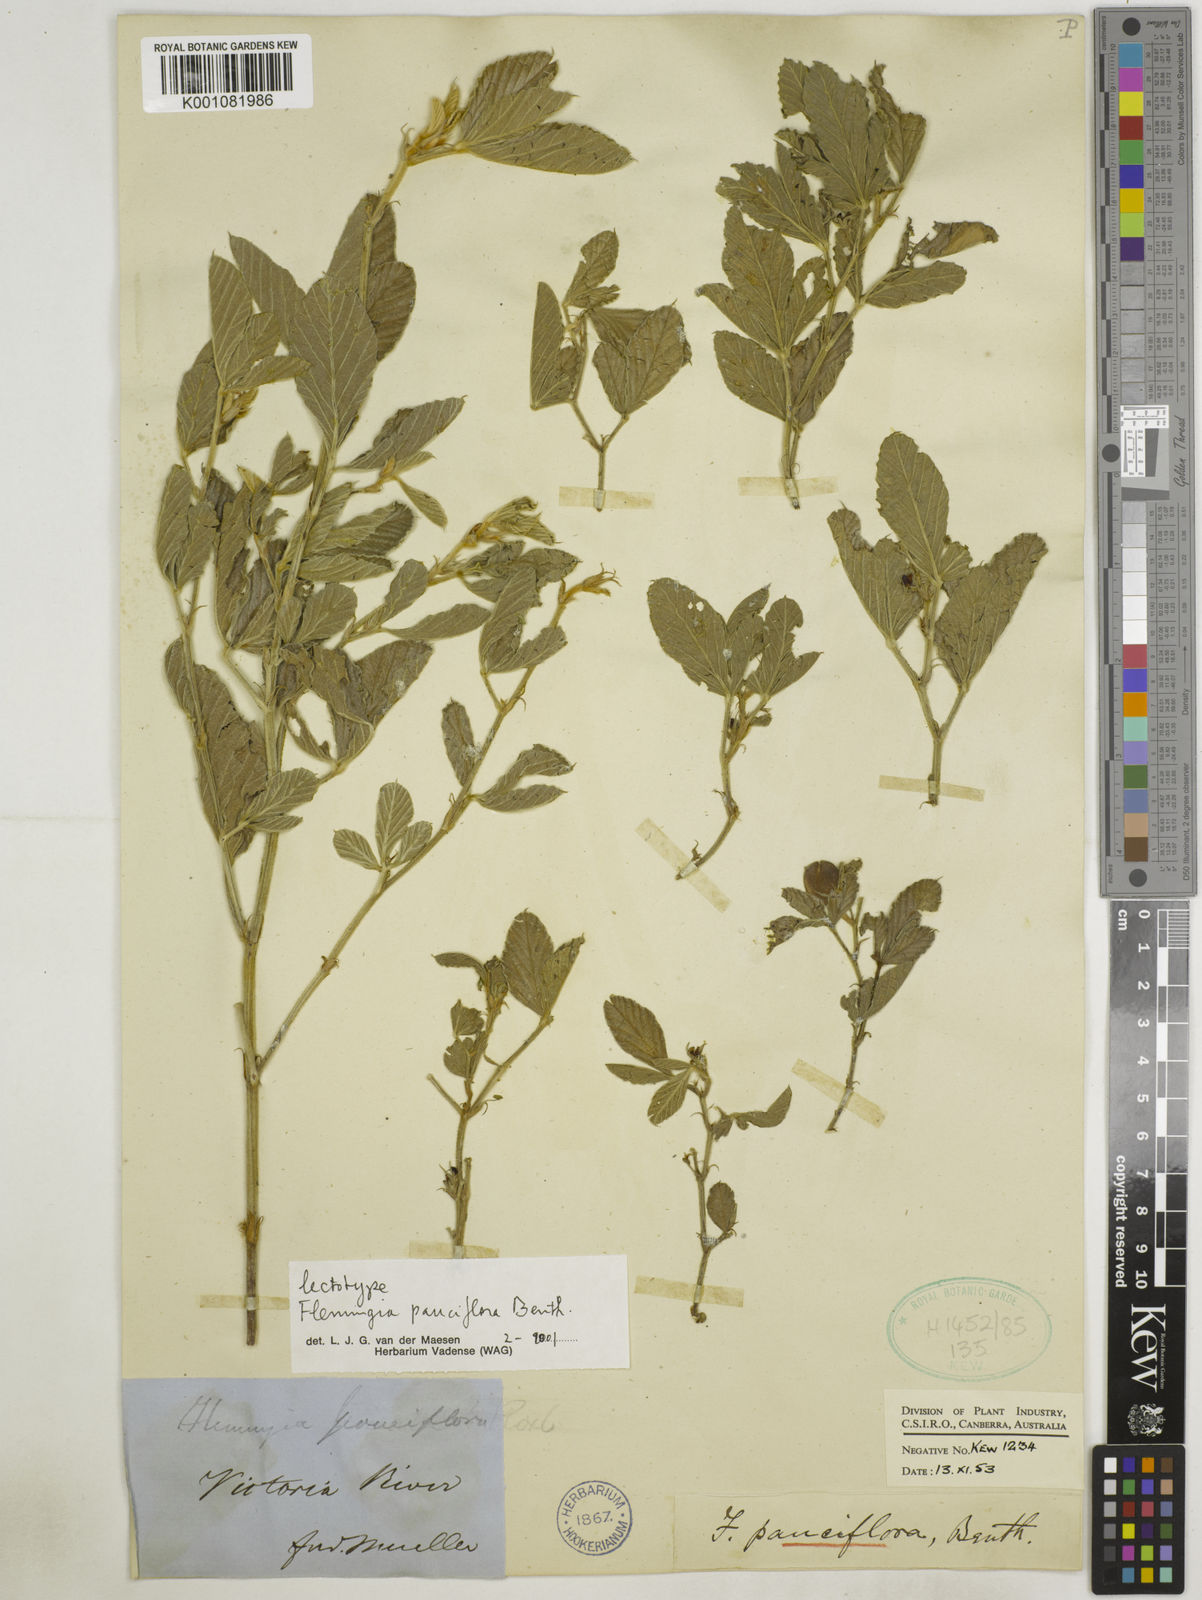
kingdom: Plantae
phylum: Tracheophyta
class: Magnoliopsida
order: Fabales
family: Fabaceae
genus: Flemingia
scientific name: Flemingia pauciflora
